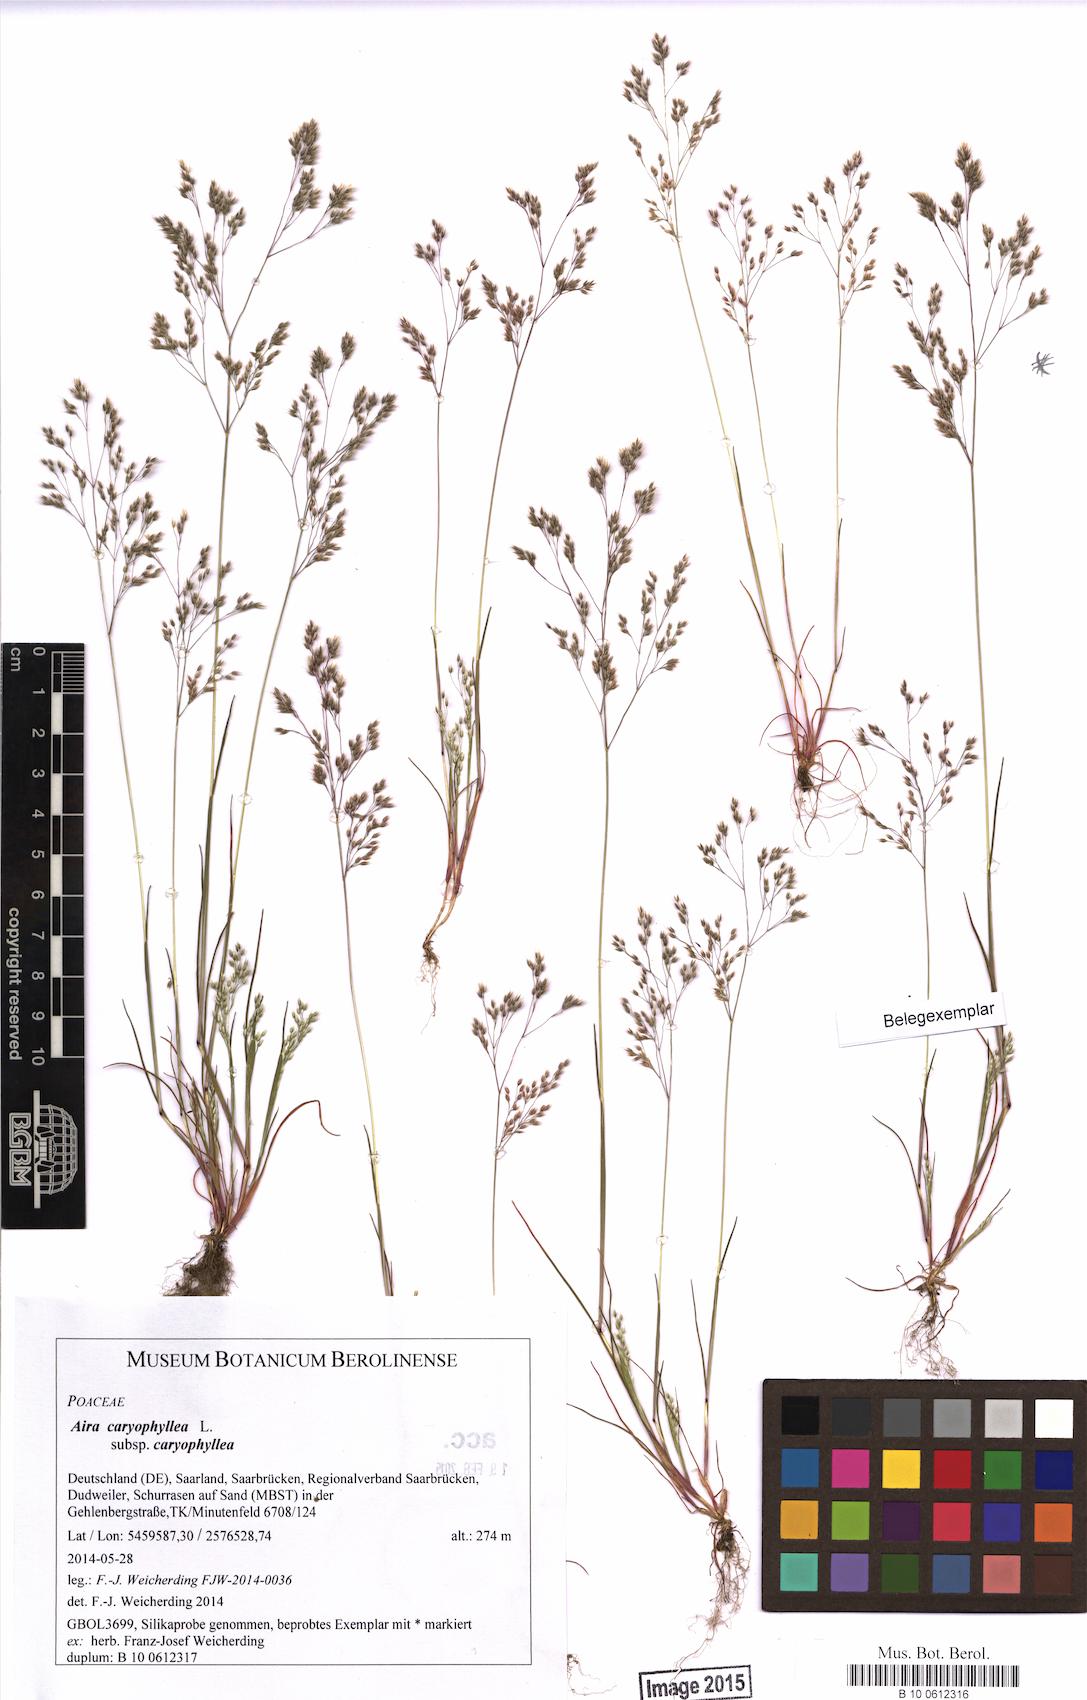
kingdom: Plantae
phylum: Tracheophyta
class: Liliopsida
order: Poales
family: Poaceae
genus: Aira
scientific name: Aira caryophyllea
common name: Silver hairgrass
